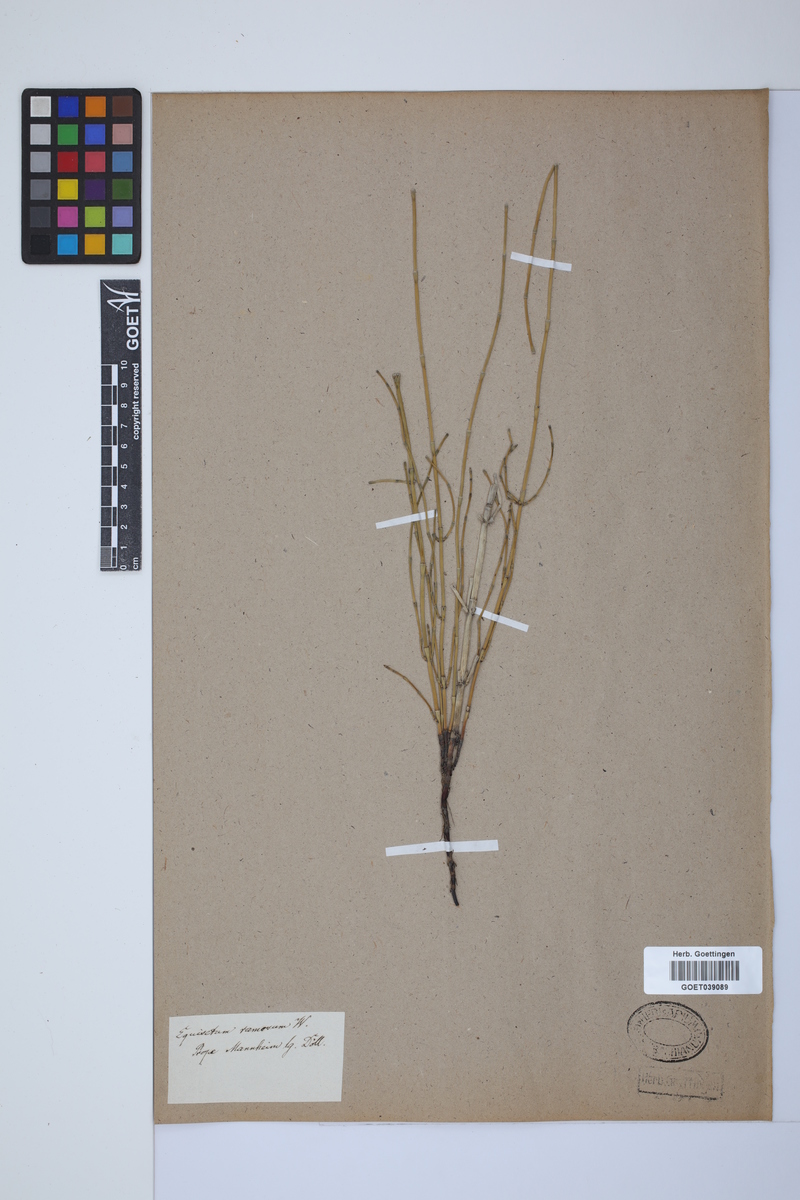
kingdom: Plantae
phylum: Tracheophyta
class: Polypodiopsida
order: Equisetales
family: Equisetaceae
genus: Equisetum
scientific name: Equisetum giganteum
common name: Giant horsetail
